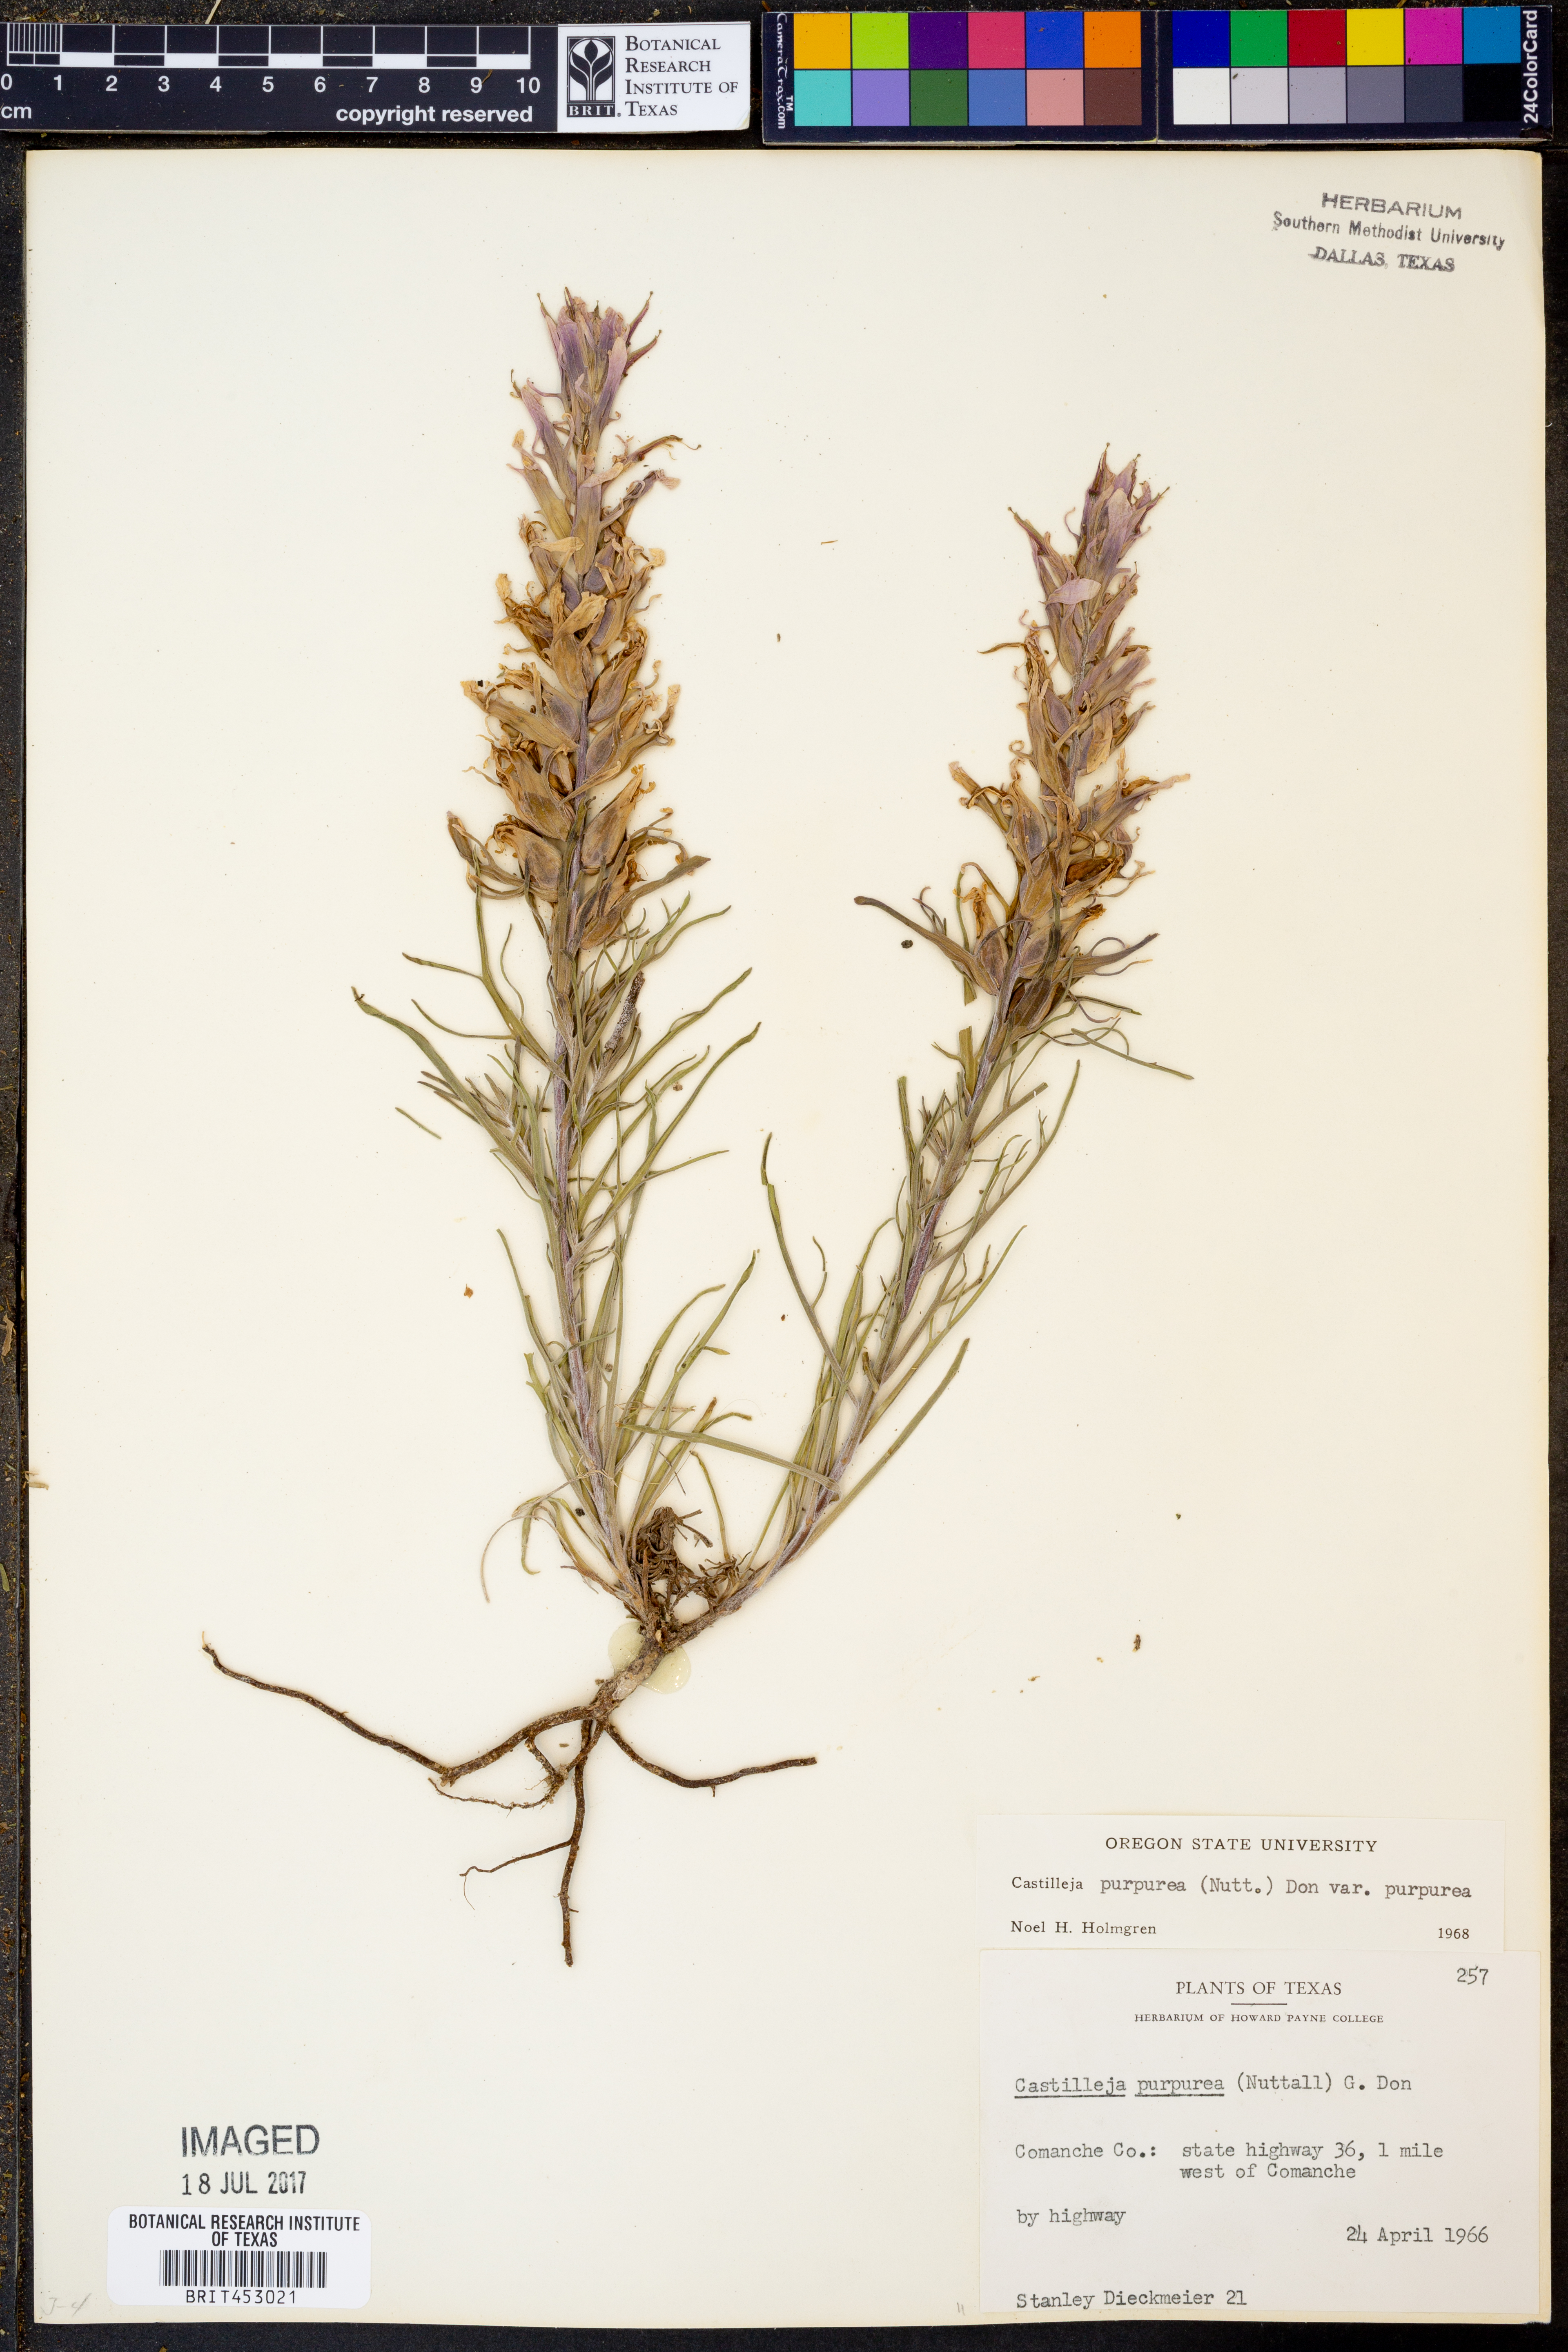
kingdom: Plantae
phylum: Tracheophyta
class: Magnoliopsida
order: Lamiales
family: Orobanchaceae
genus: Castilleja
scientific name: Castilleja purpurea
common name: Plains paintbrush
